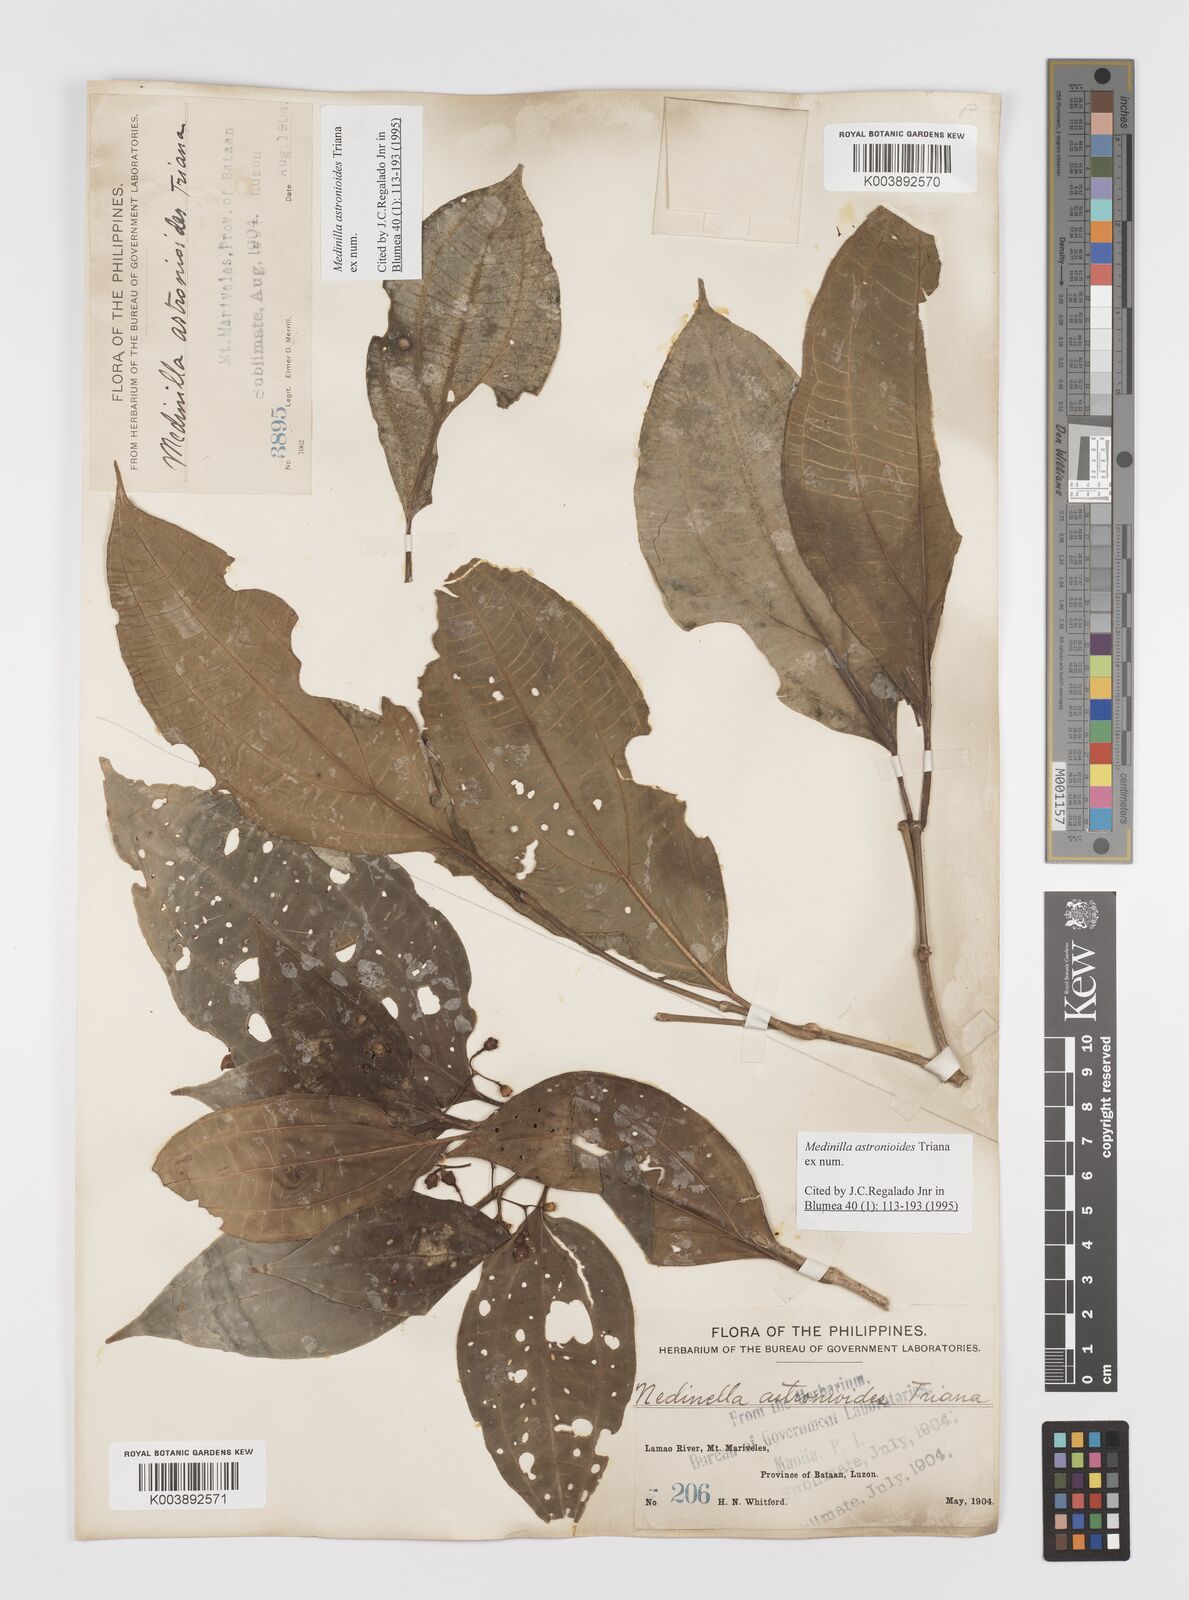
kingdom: Plantae
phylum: Tracheophyta
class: Magnoliopsida
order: Myrtales
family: Melastomataceae
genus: Medinilla
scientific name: Medinilla astronioides
